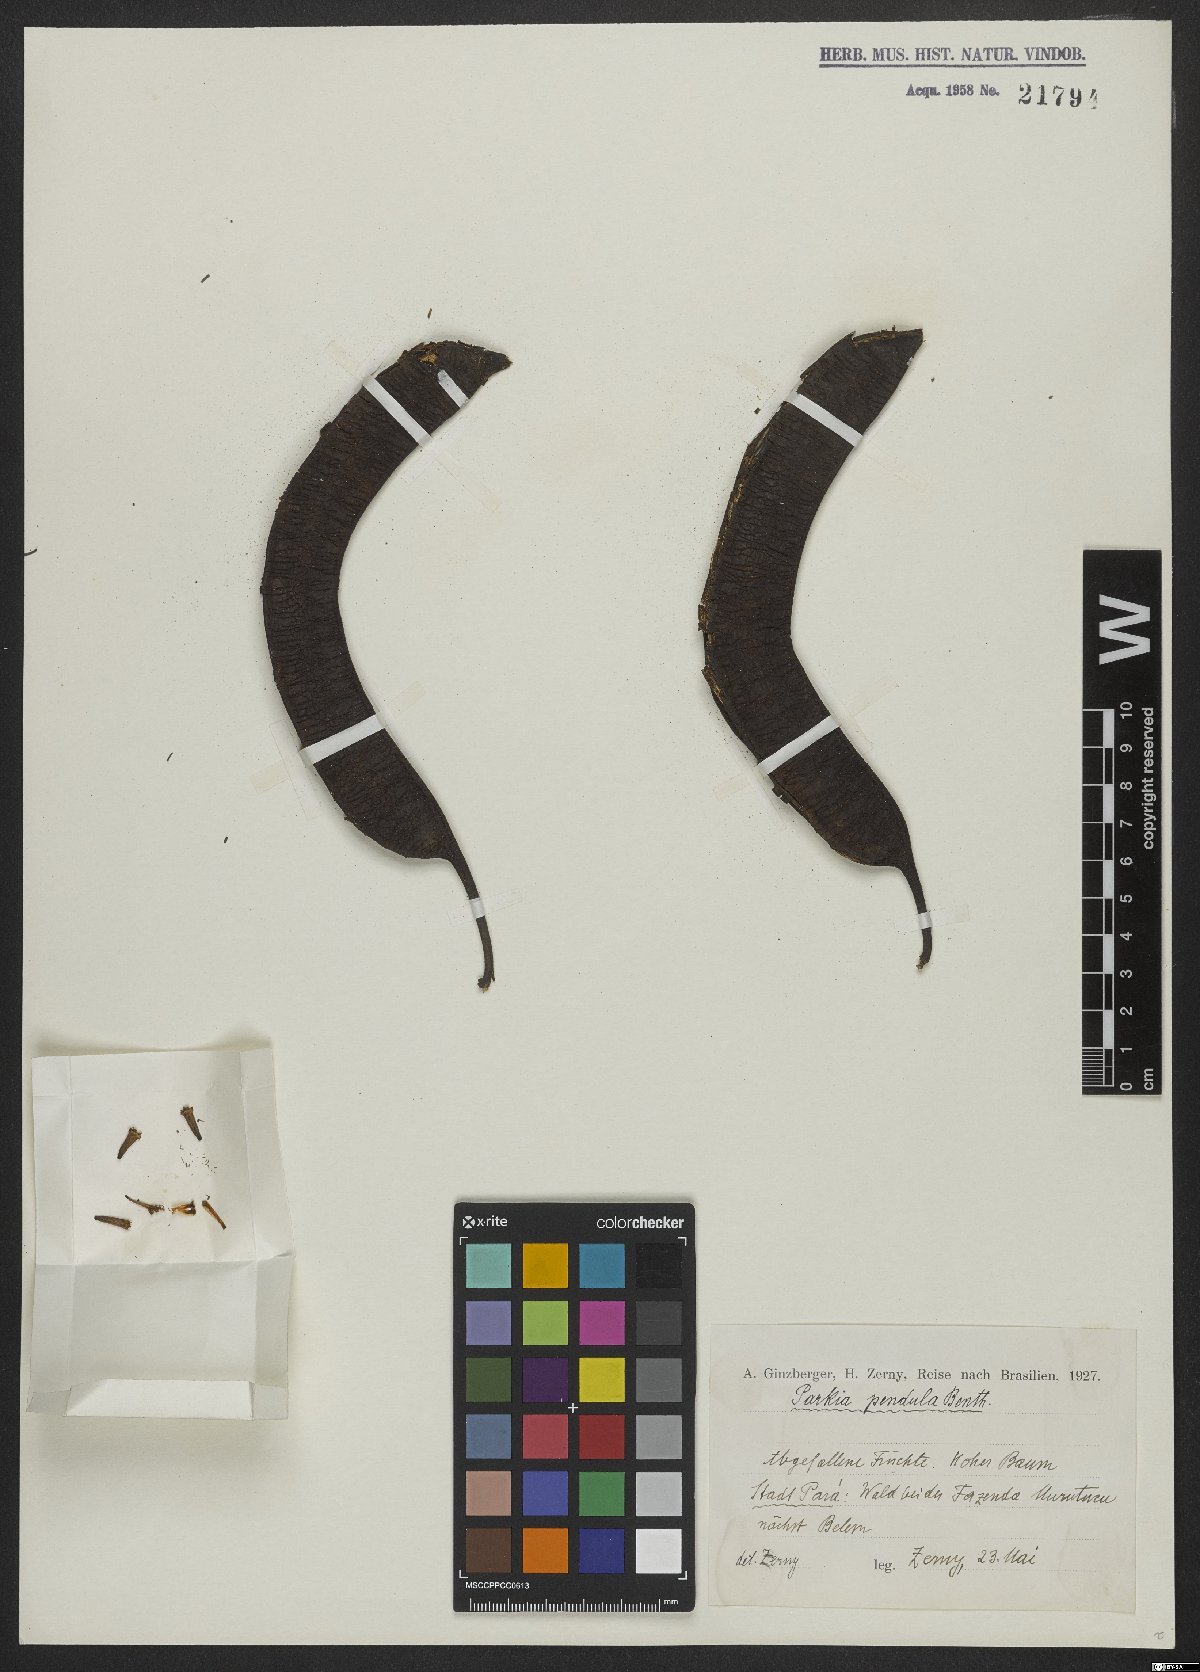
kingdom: Plantae
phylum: Tracheophyta
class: Magnoliopsida
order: Fabales
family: Fabaceae
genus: Parkia
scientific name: Parkia pendula
